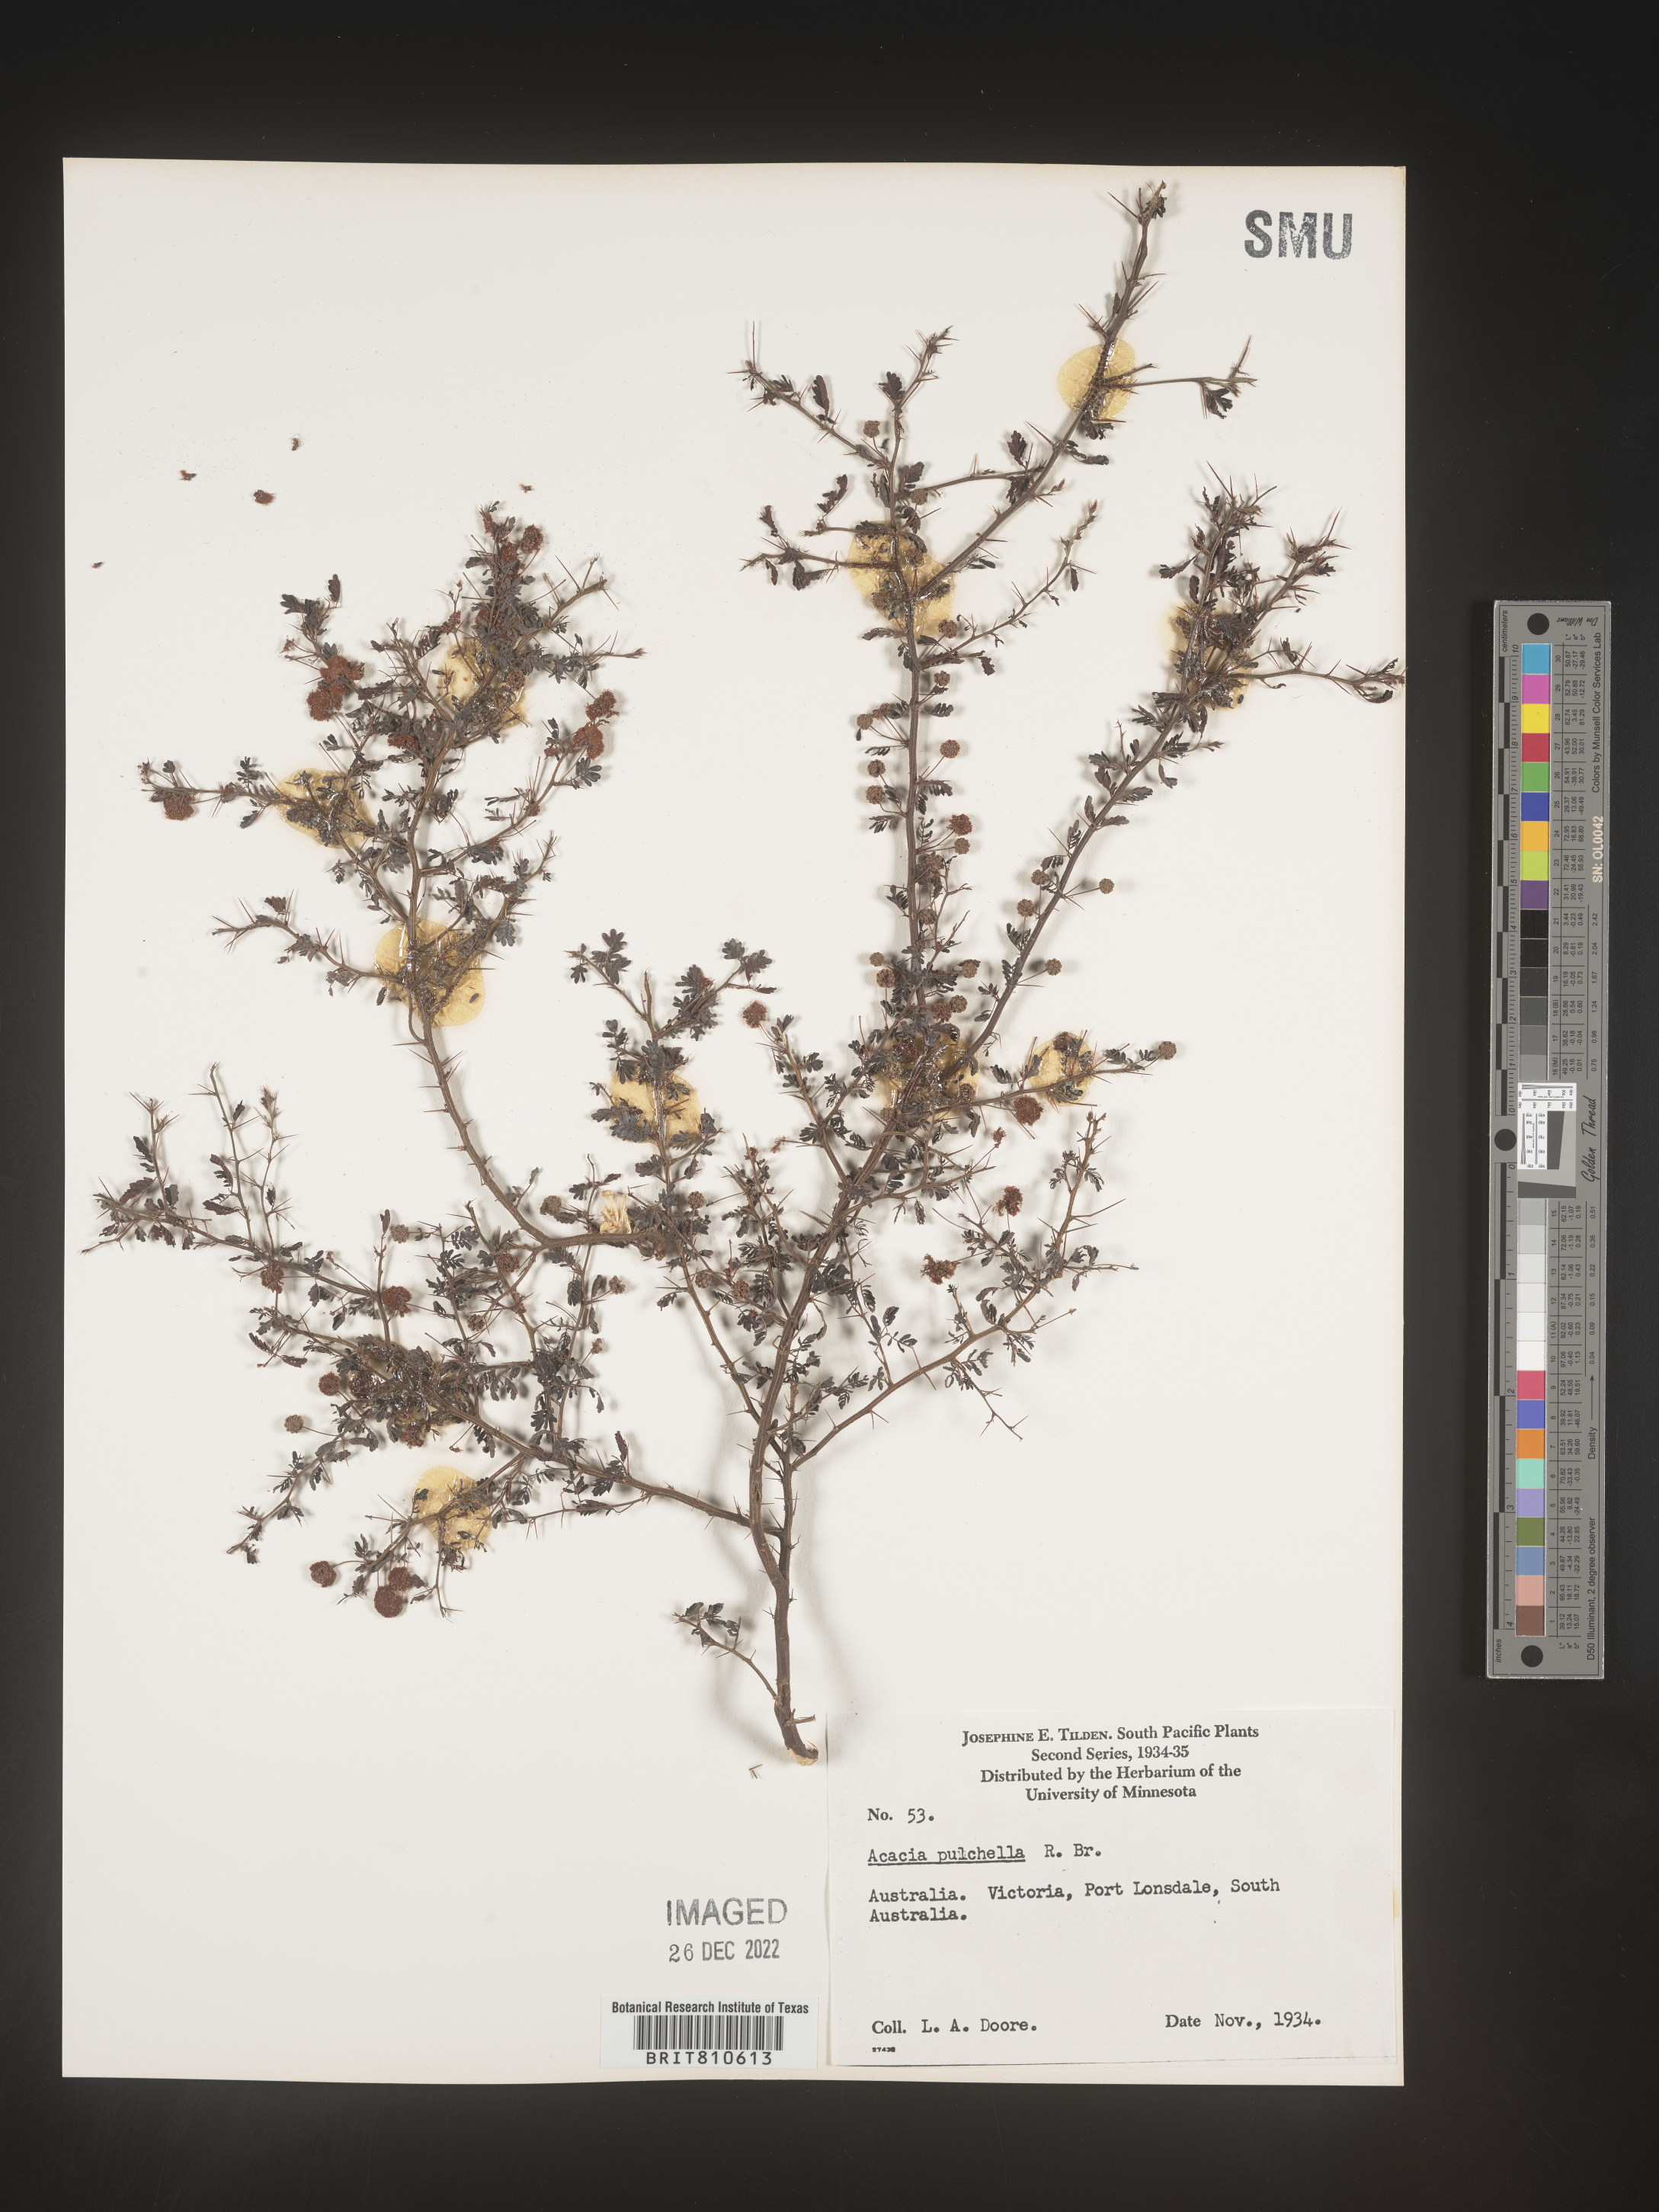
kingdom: Plantae
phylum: Tracheophyta
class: Magnoliopsida
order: Fabales
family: Fabaceae
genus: Acacia
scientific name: Acacia
